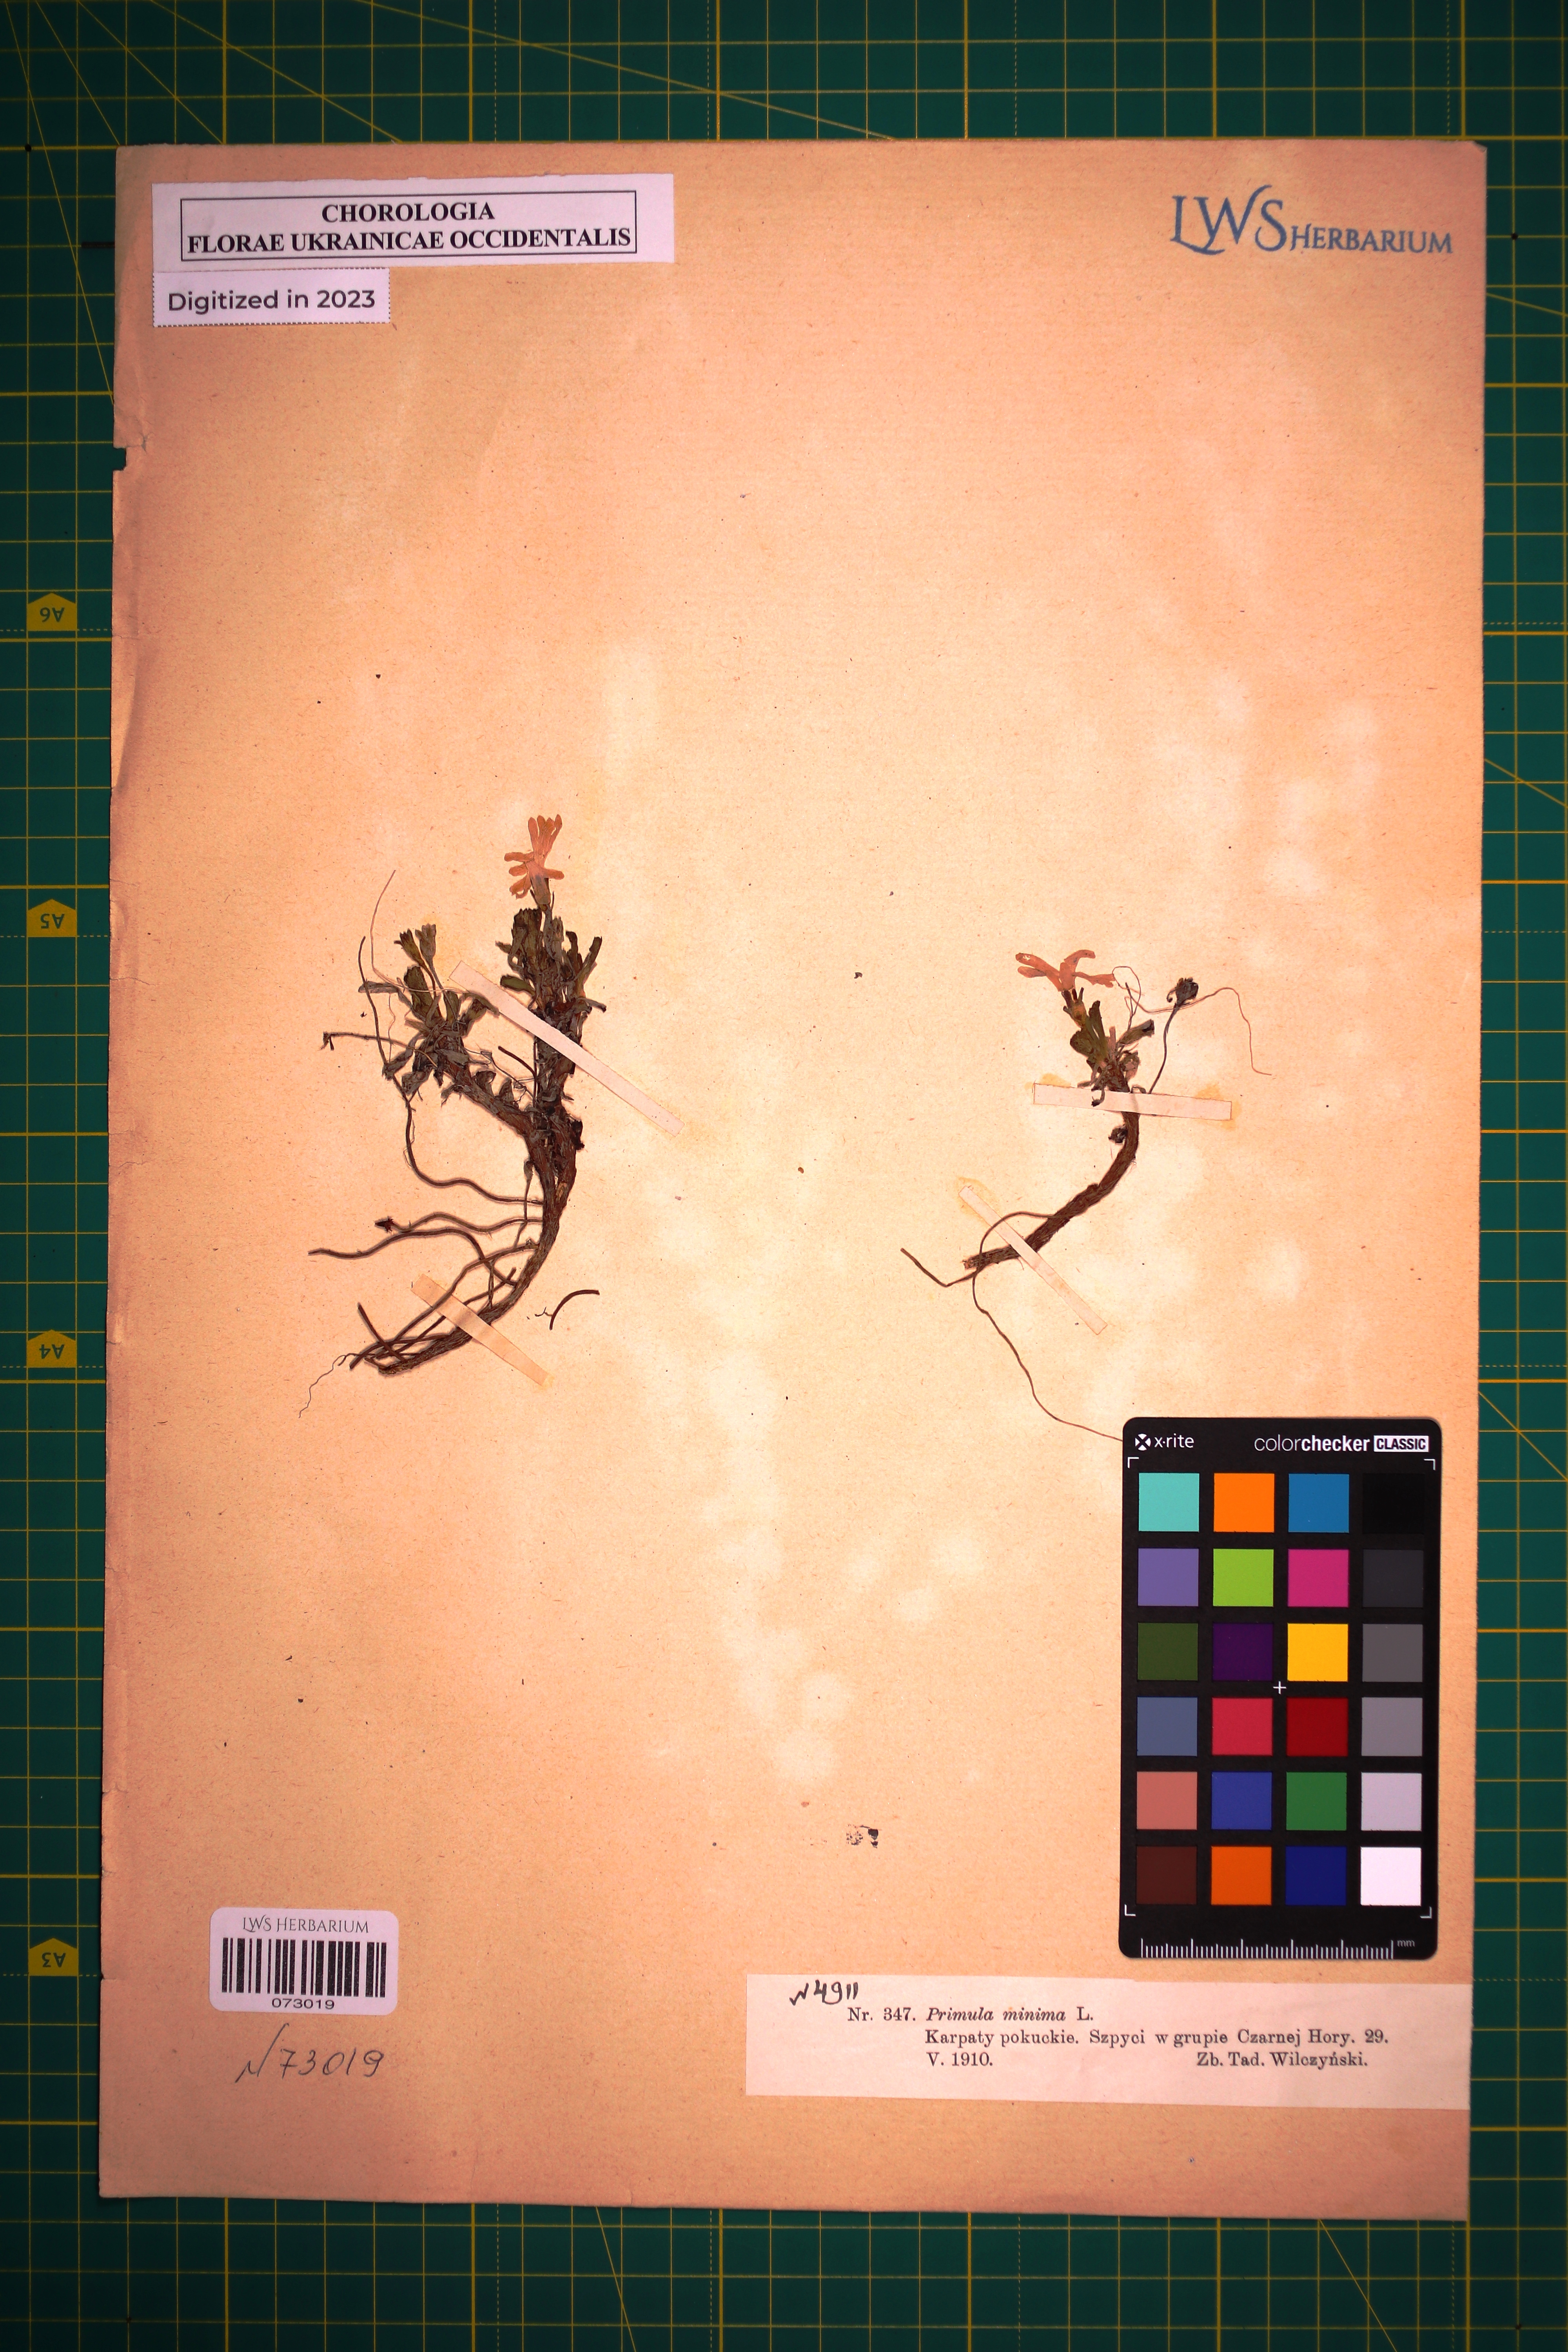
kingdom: Plantae
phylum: Tracheophyta
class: Magnoliopsida
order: Ericales
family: Primulaceae
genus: Primula
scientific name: Primula minima
